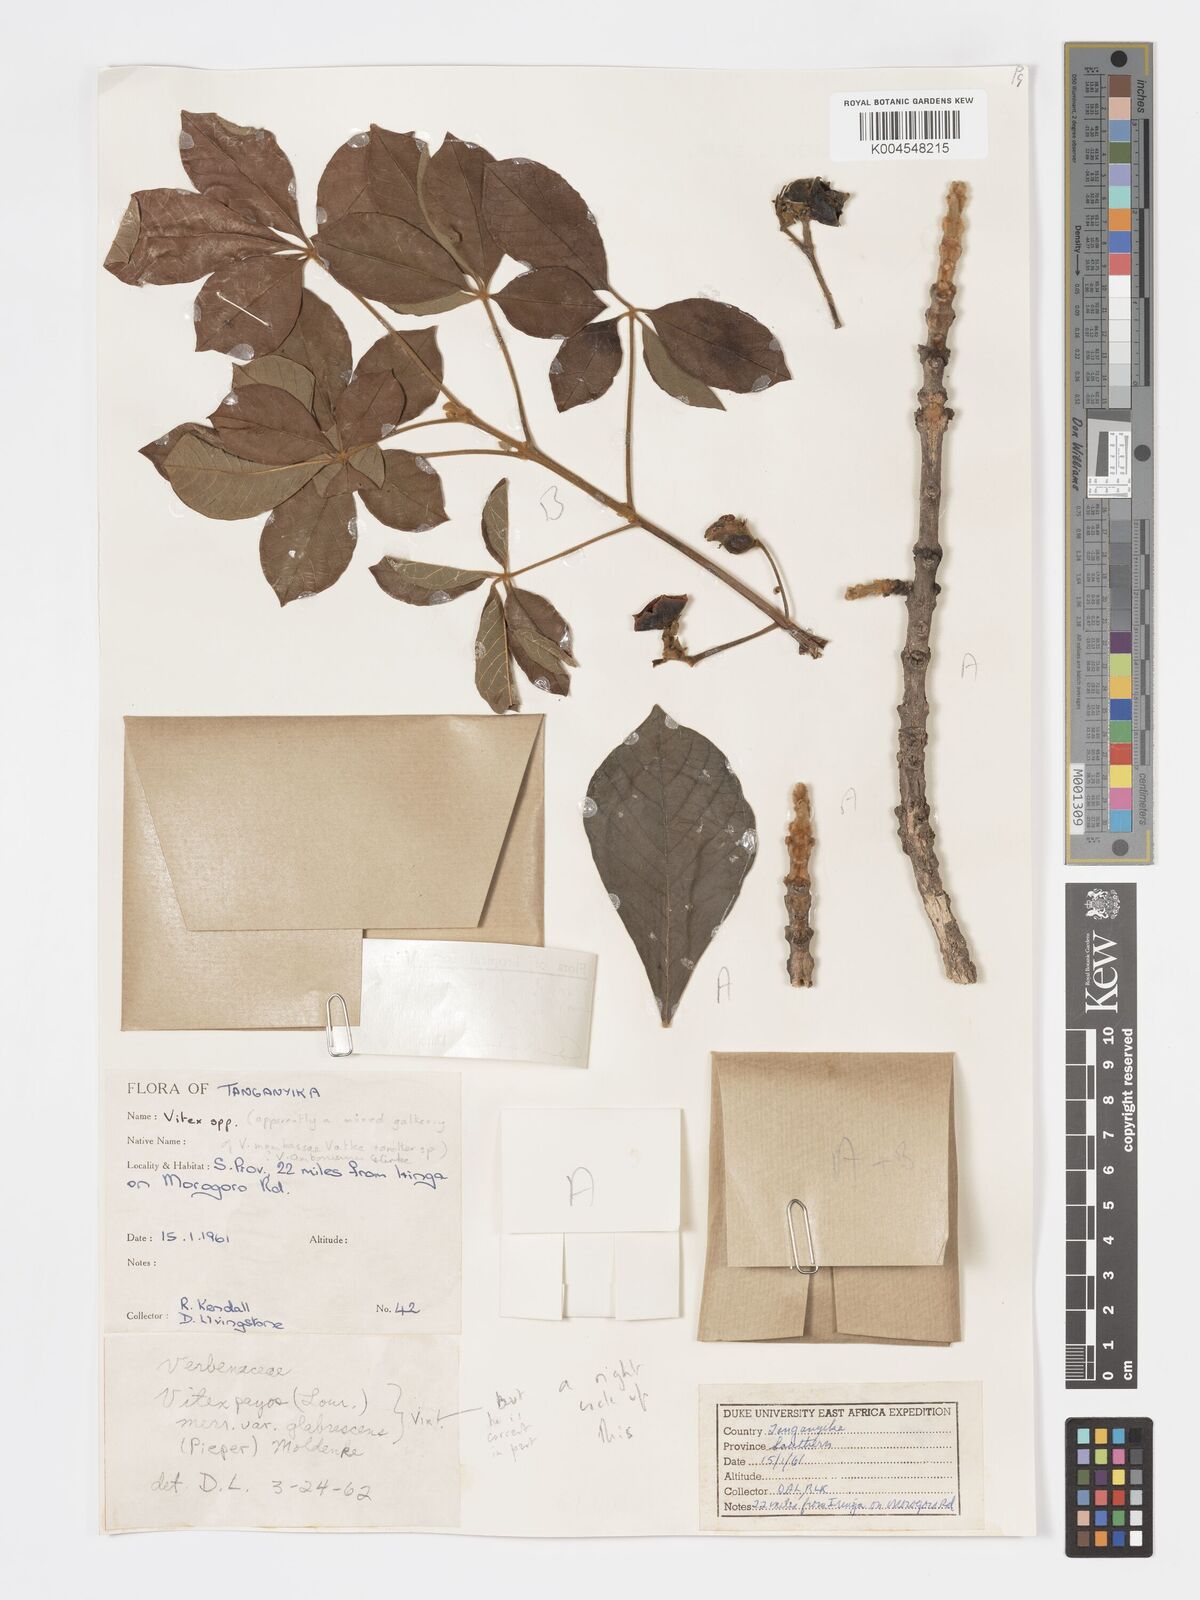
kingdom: Plantae
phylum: Tracheophyta
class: Magnoliopsida
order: Lamiales
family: Lamiaceae
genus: Vitex
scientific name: Vitex payos
